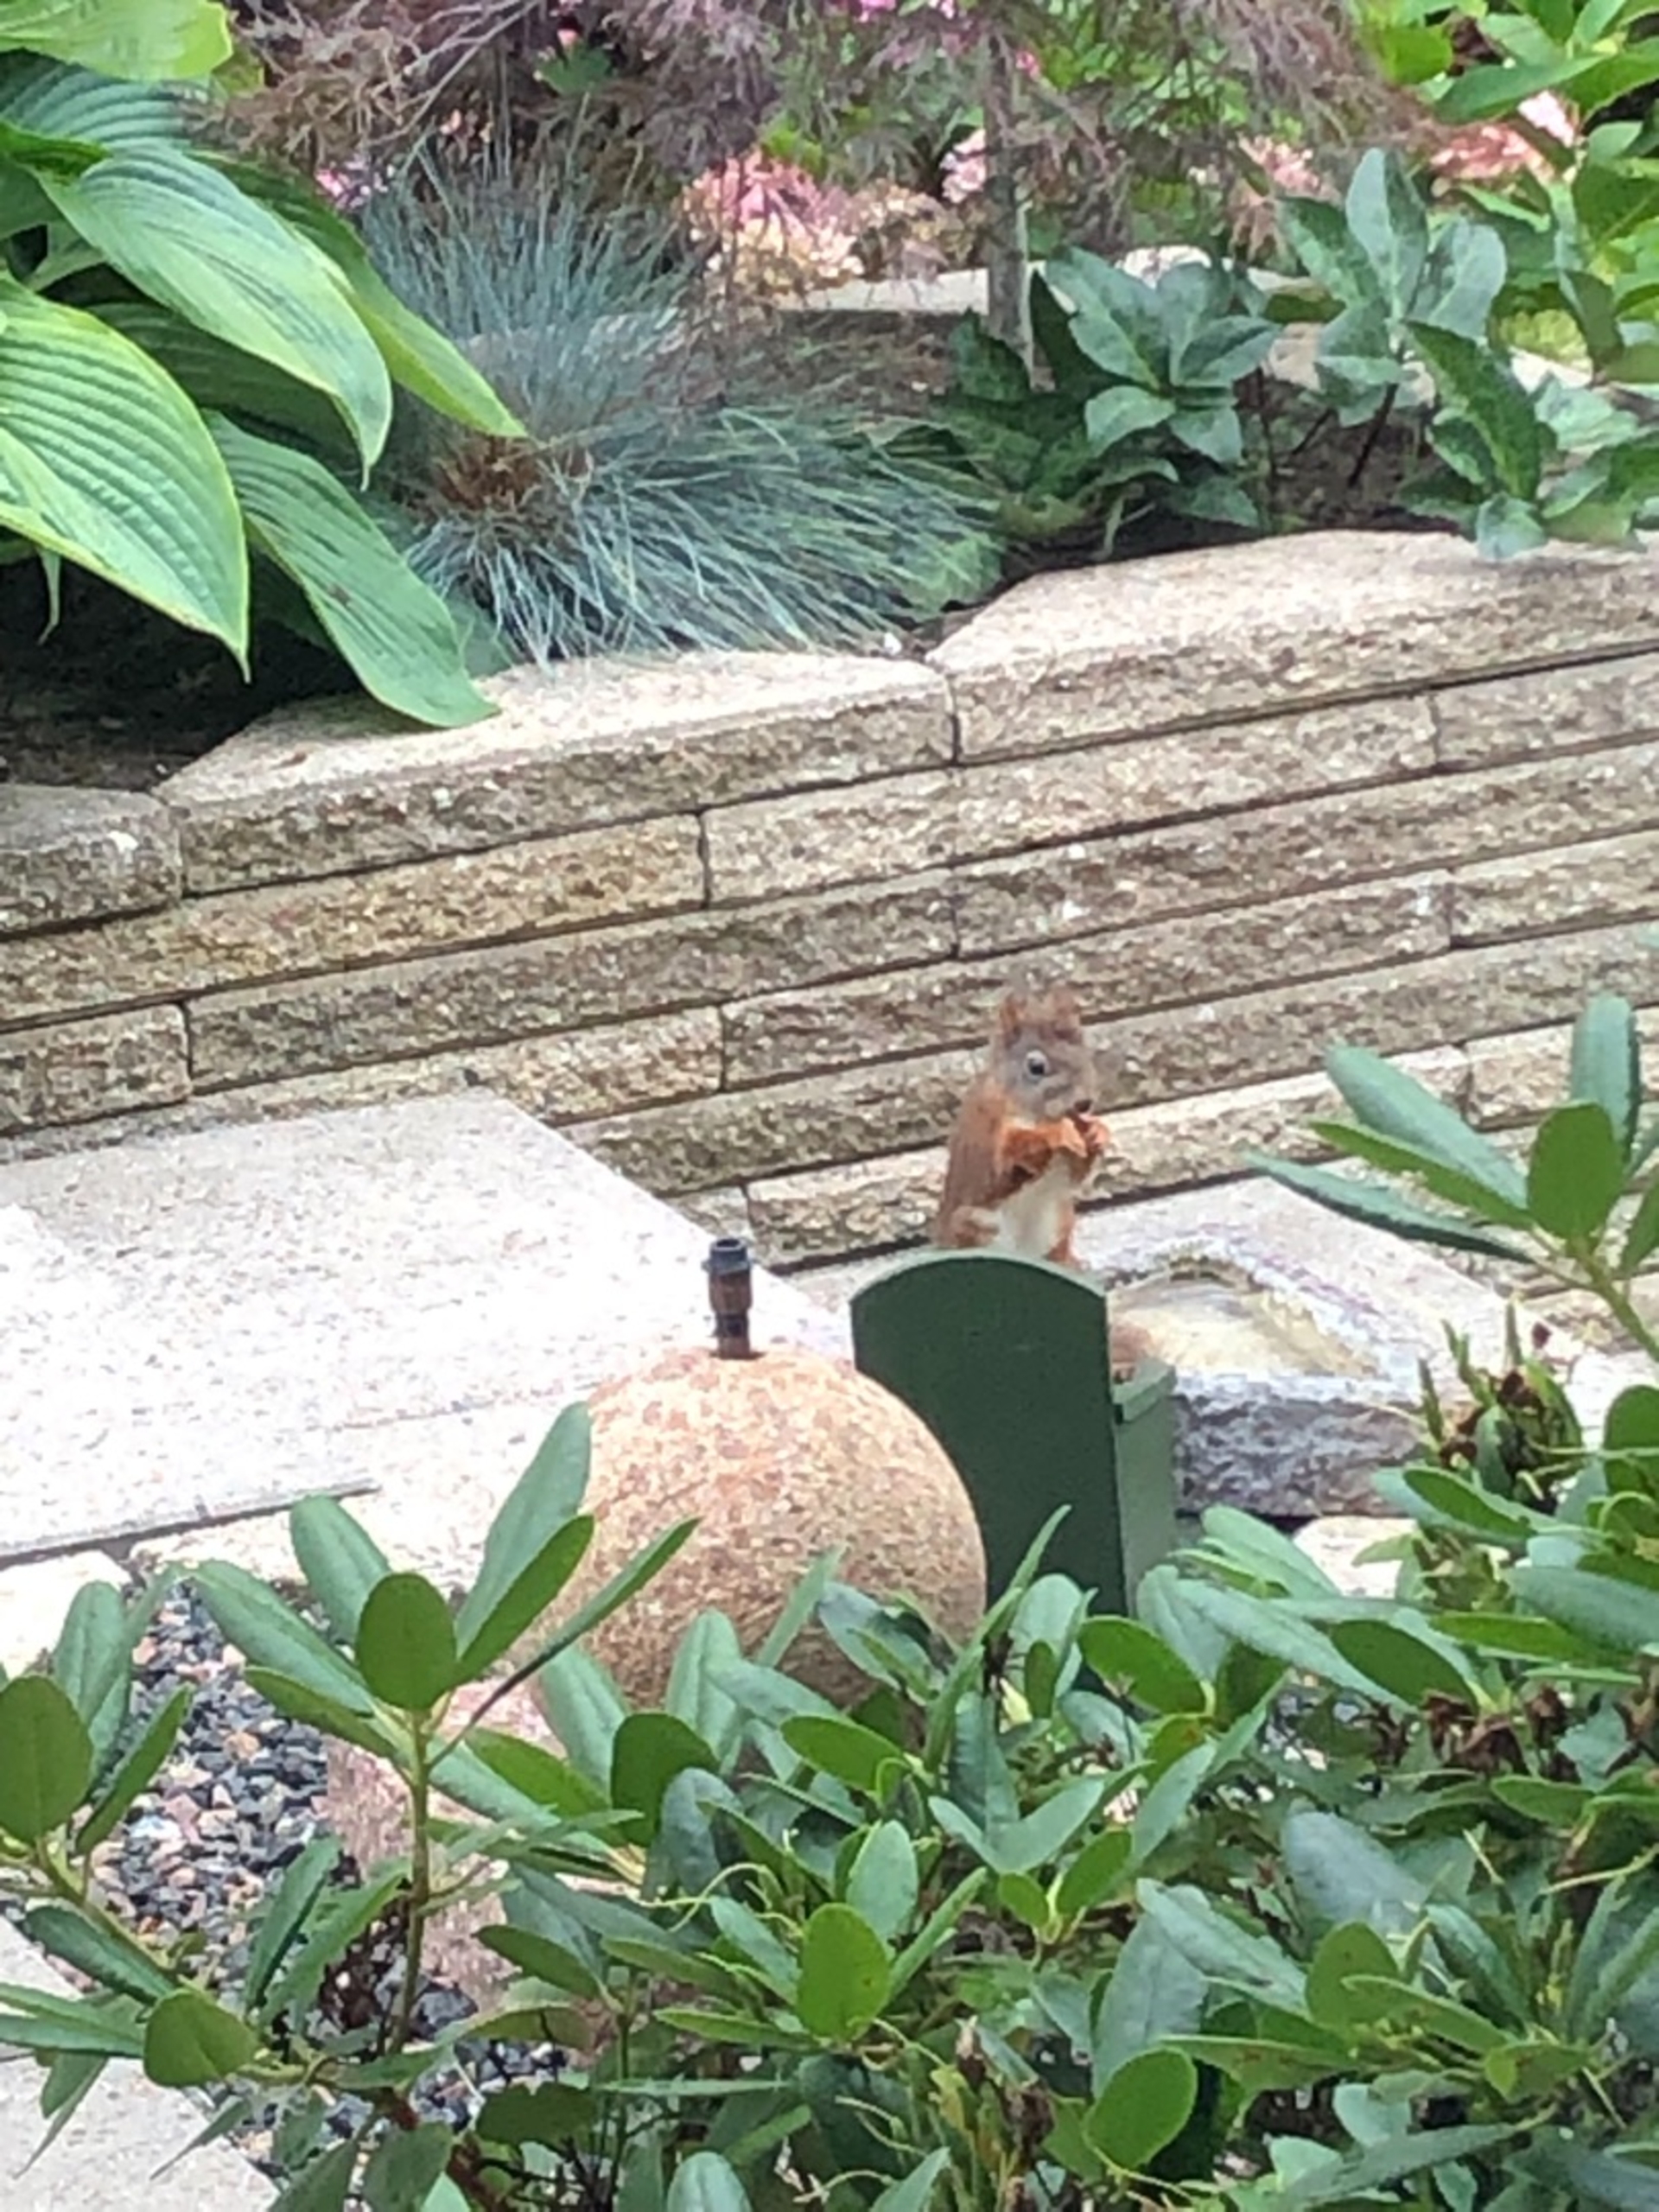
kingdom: Animalia
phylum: Chordata
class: Mammalia
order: Rodentia
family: Sciuridae
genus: Sciurus
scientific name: Sciurus vulgaris
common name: Egern
